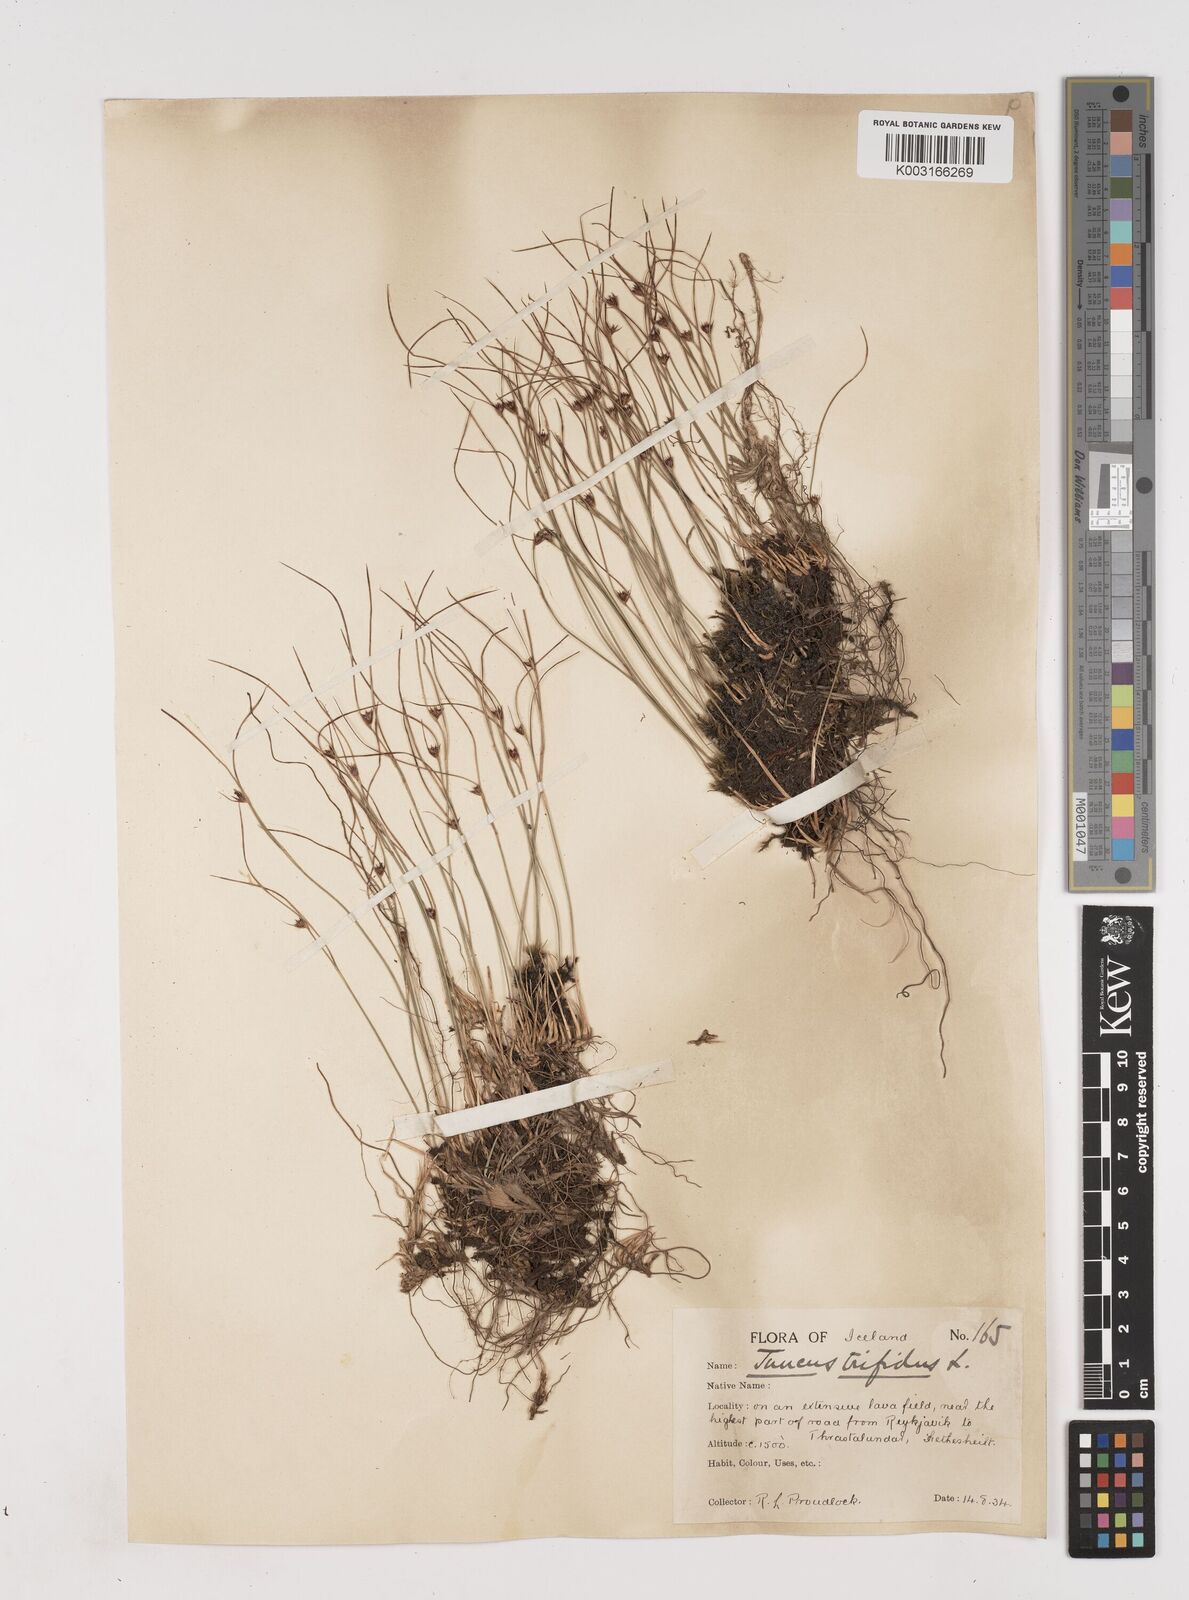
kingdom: Plantae
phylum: Tracheophyta
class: Liliopsida
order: Poales
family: Juncaceae
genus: Oreojuncus
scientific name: Oreojuncus trifidus
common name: Highland rush
